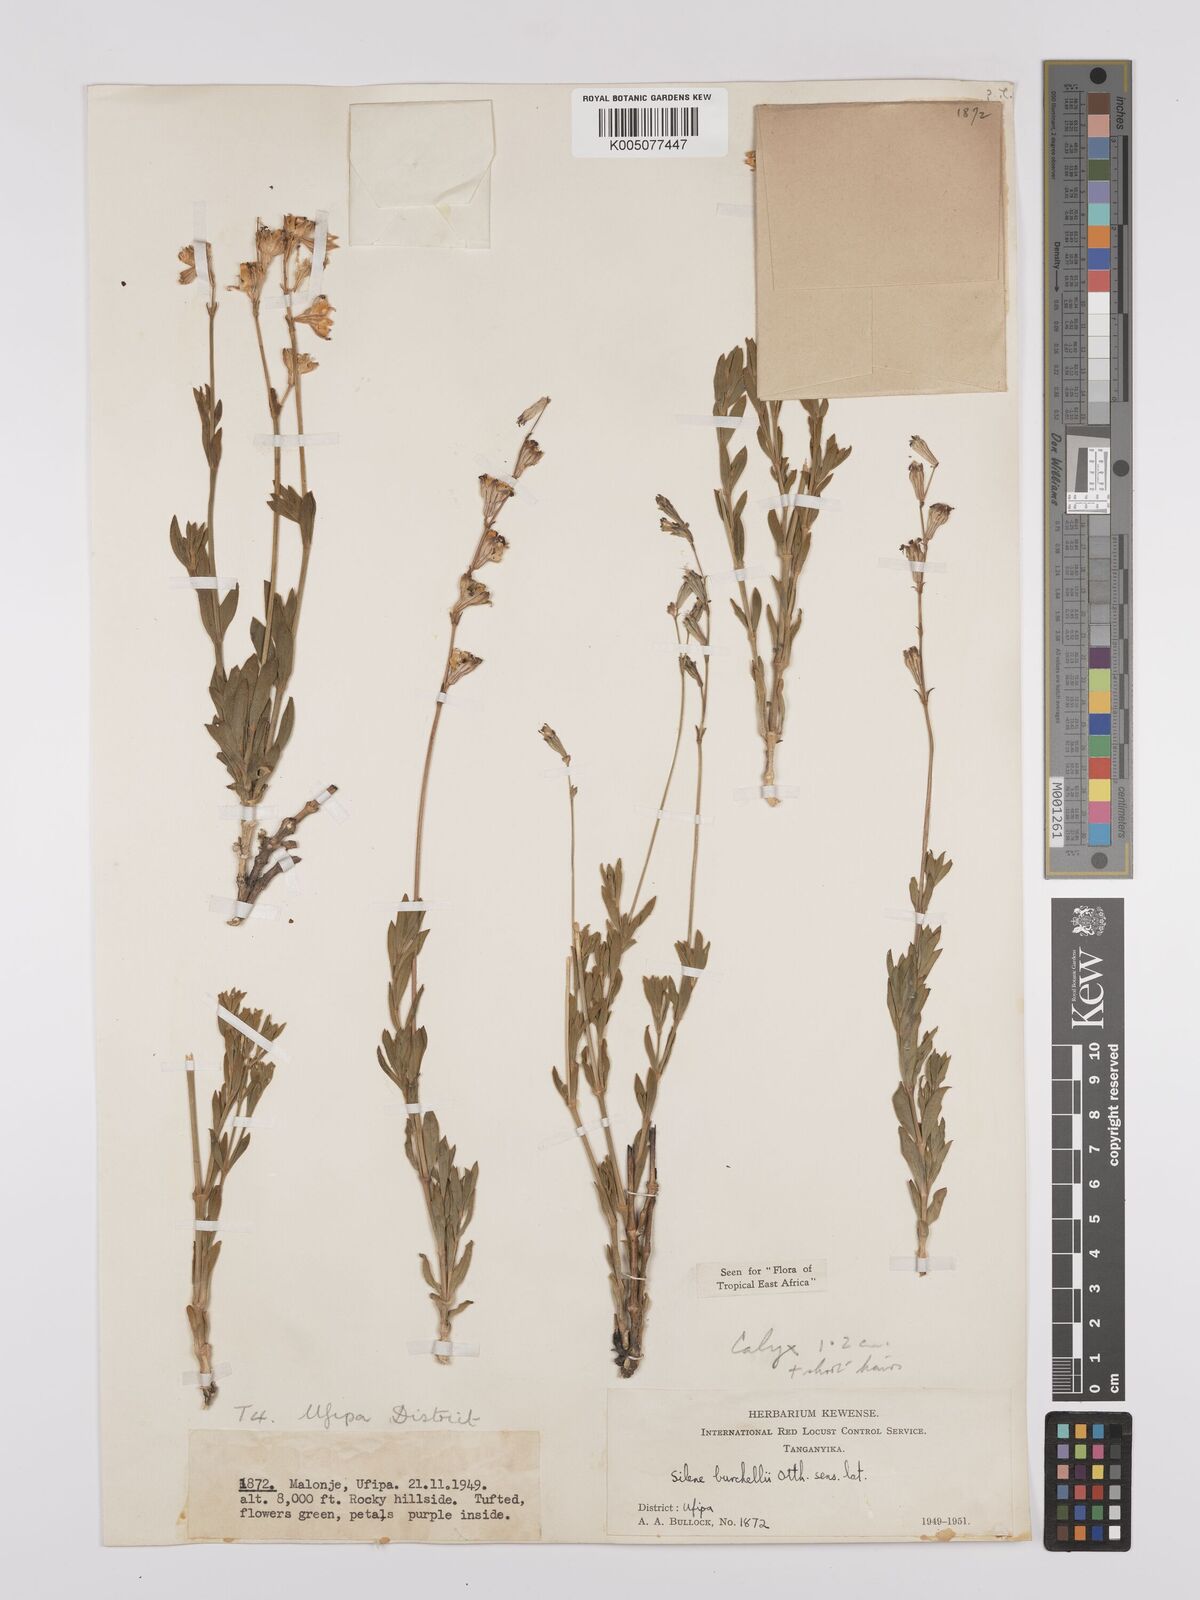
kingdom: Plantae
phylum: Tracheophyta
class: Magnoliopsida
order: Caryophyllales
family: Caryophyllaceae
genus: Silene
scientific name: Silene burchellii
